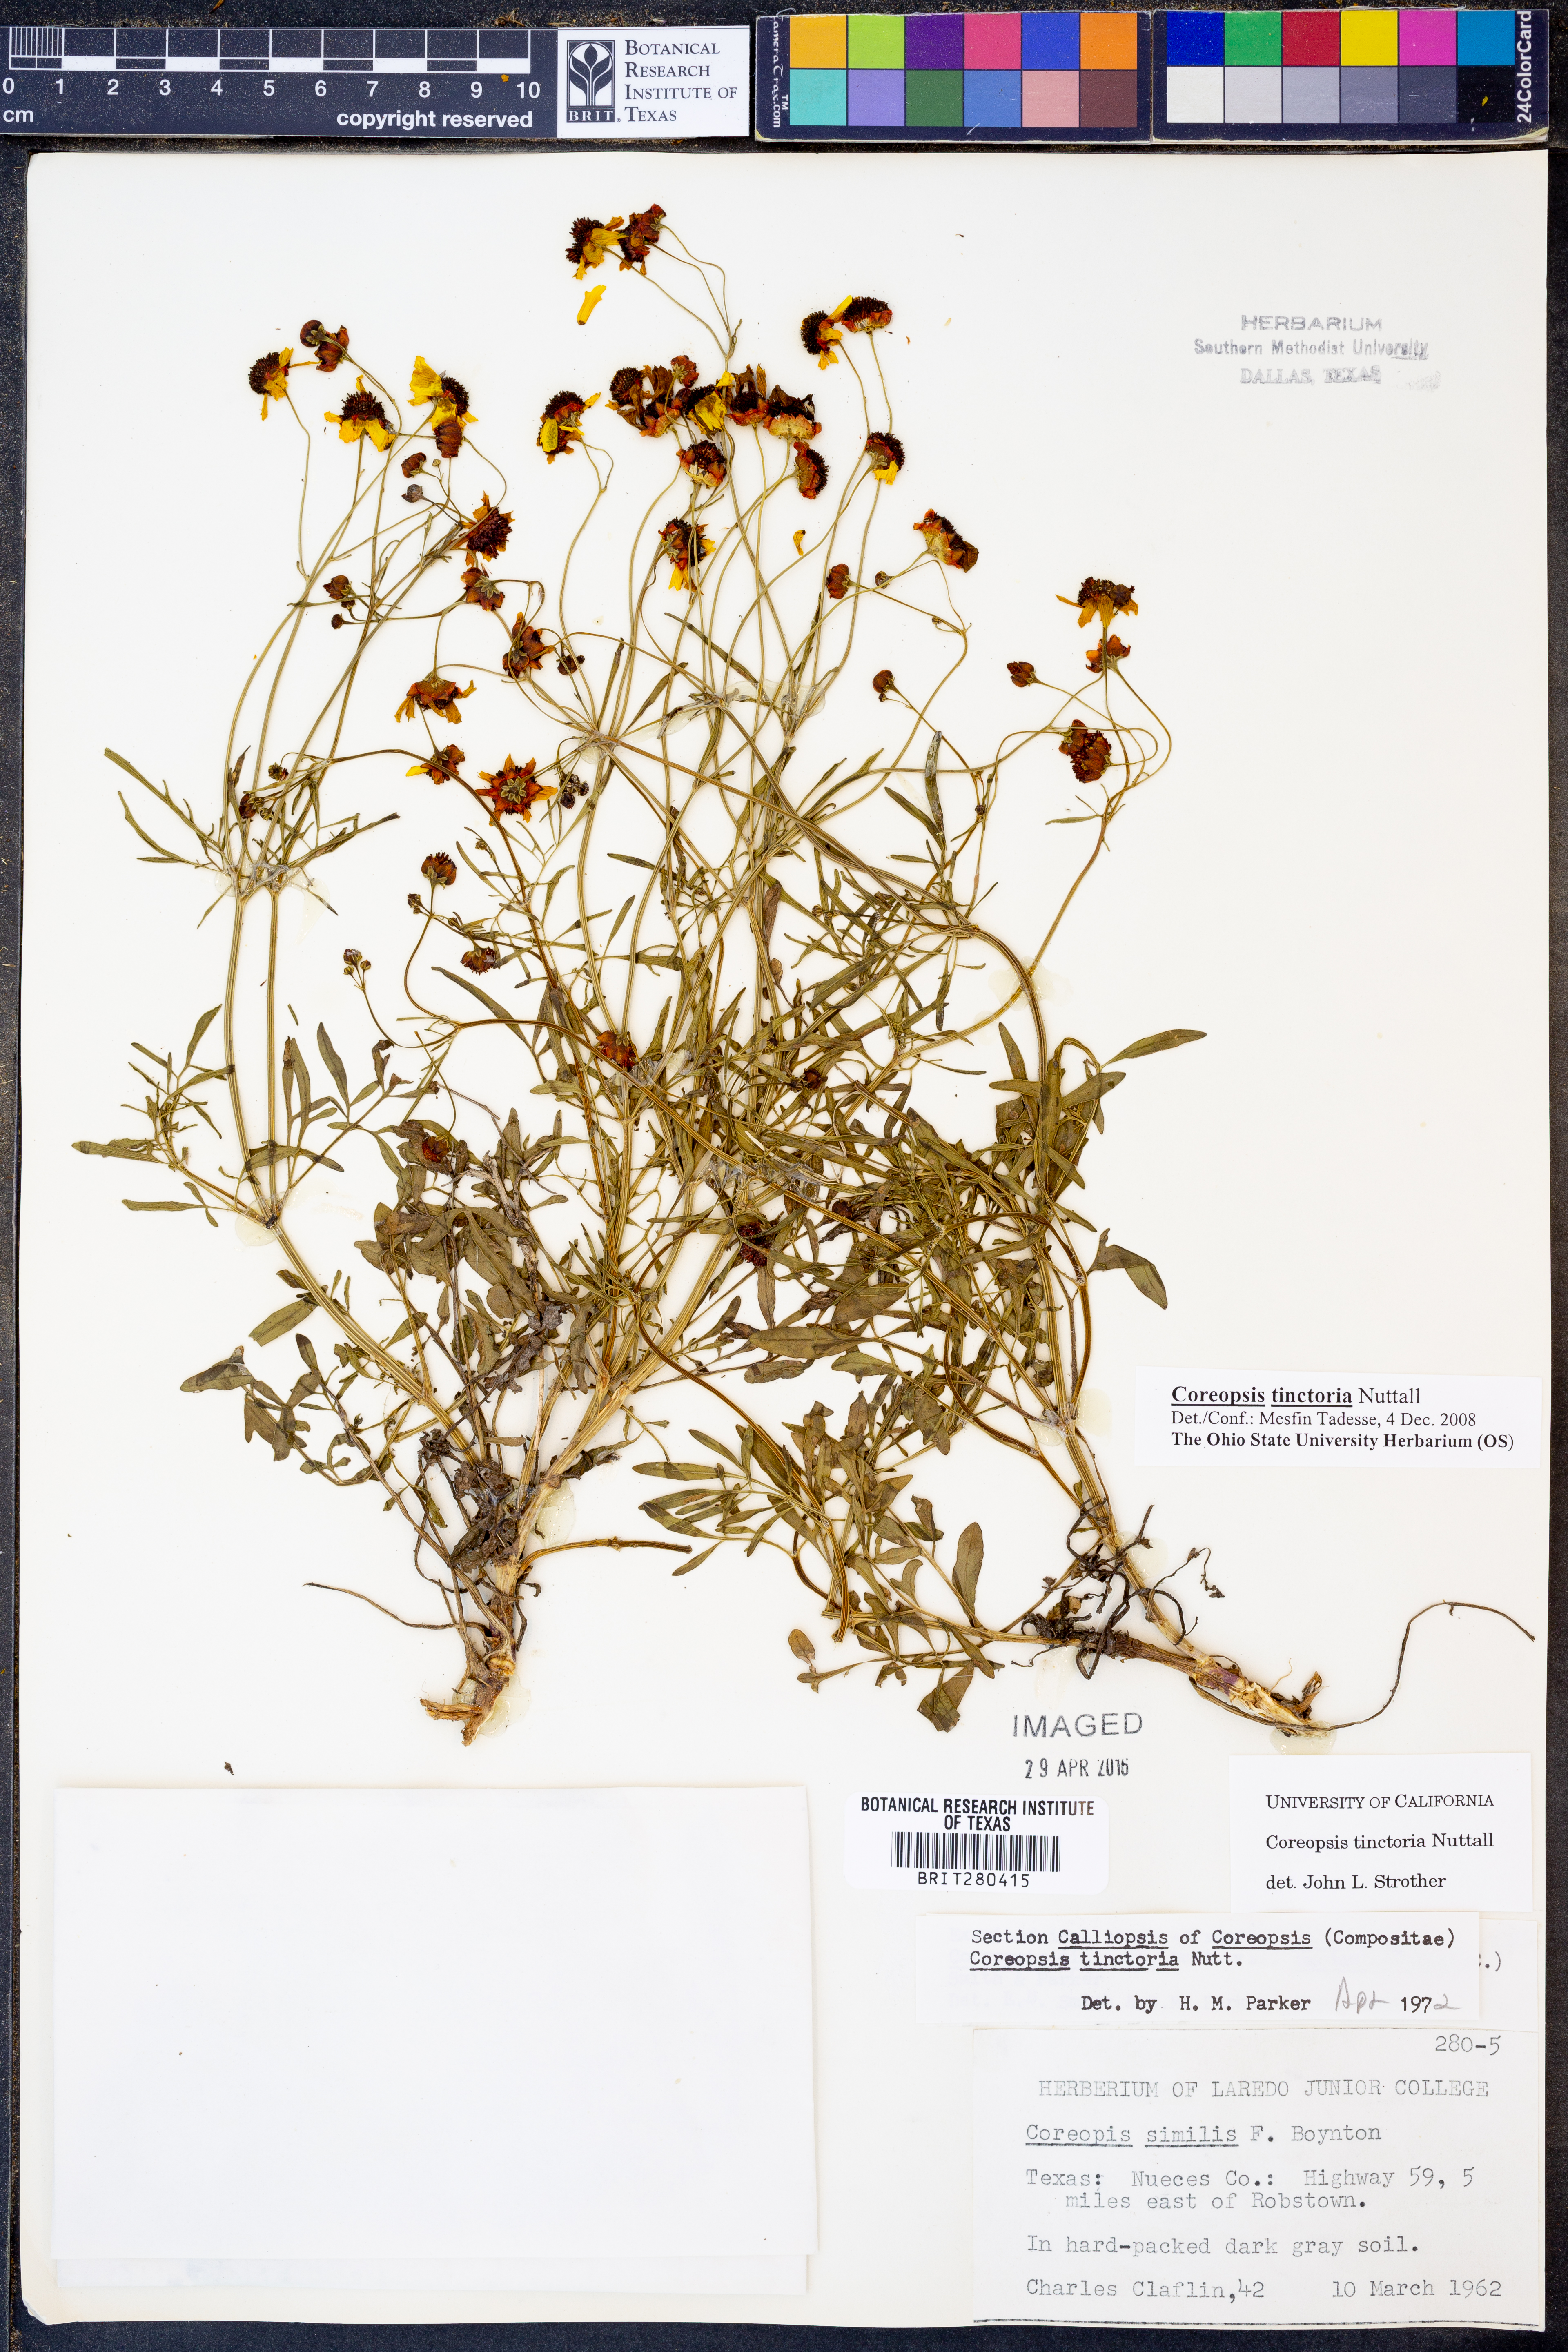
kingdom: Plantae
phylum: Tracheophyta
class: Magnoliopsida
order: Asterales
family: Asteraceae
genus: Coreopsis
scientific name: Coreopsis tinctoria
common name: Garden tickseed
